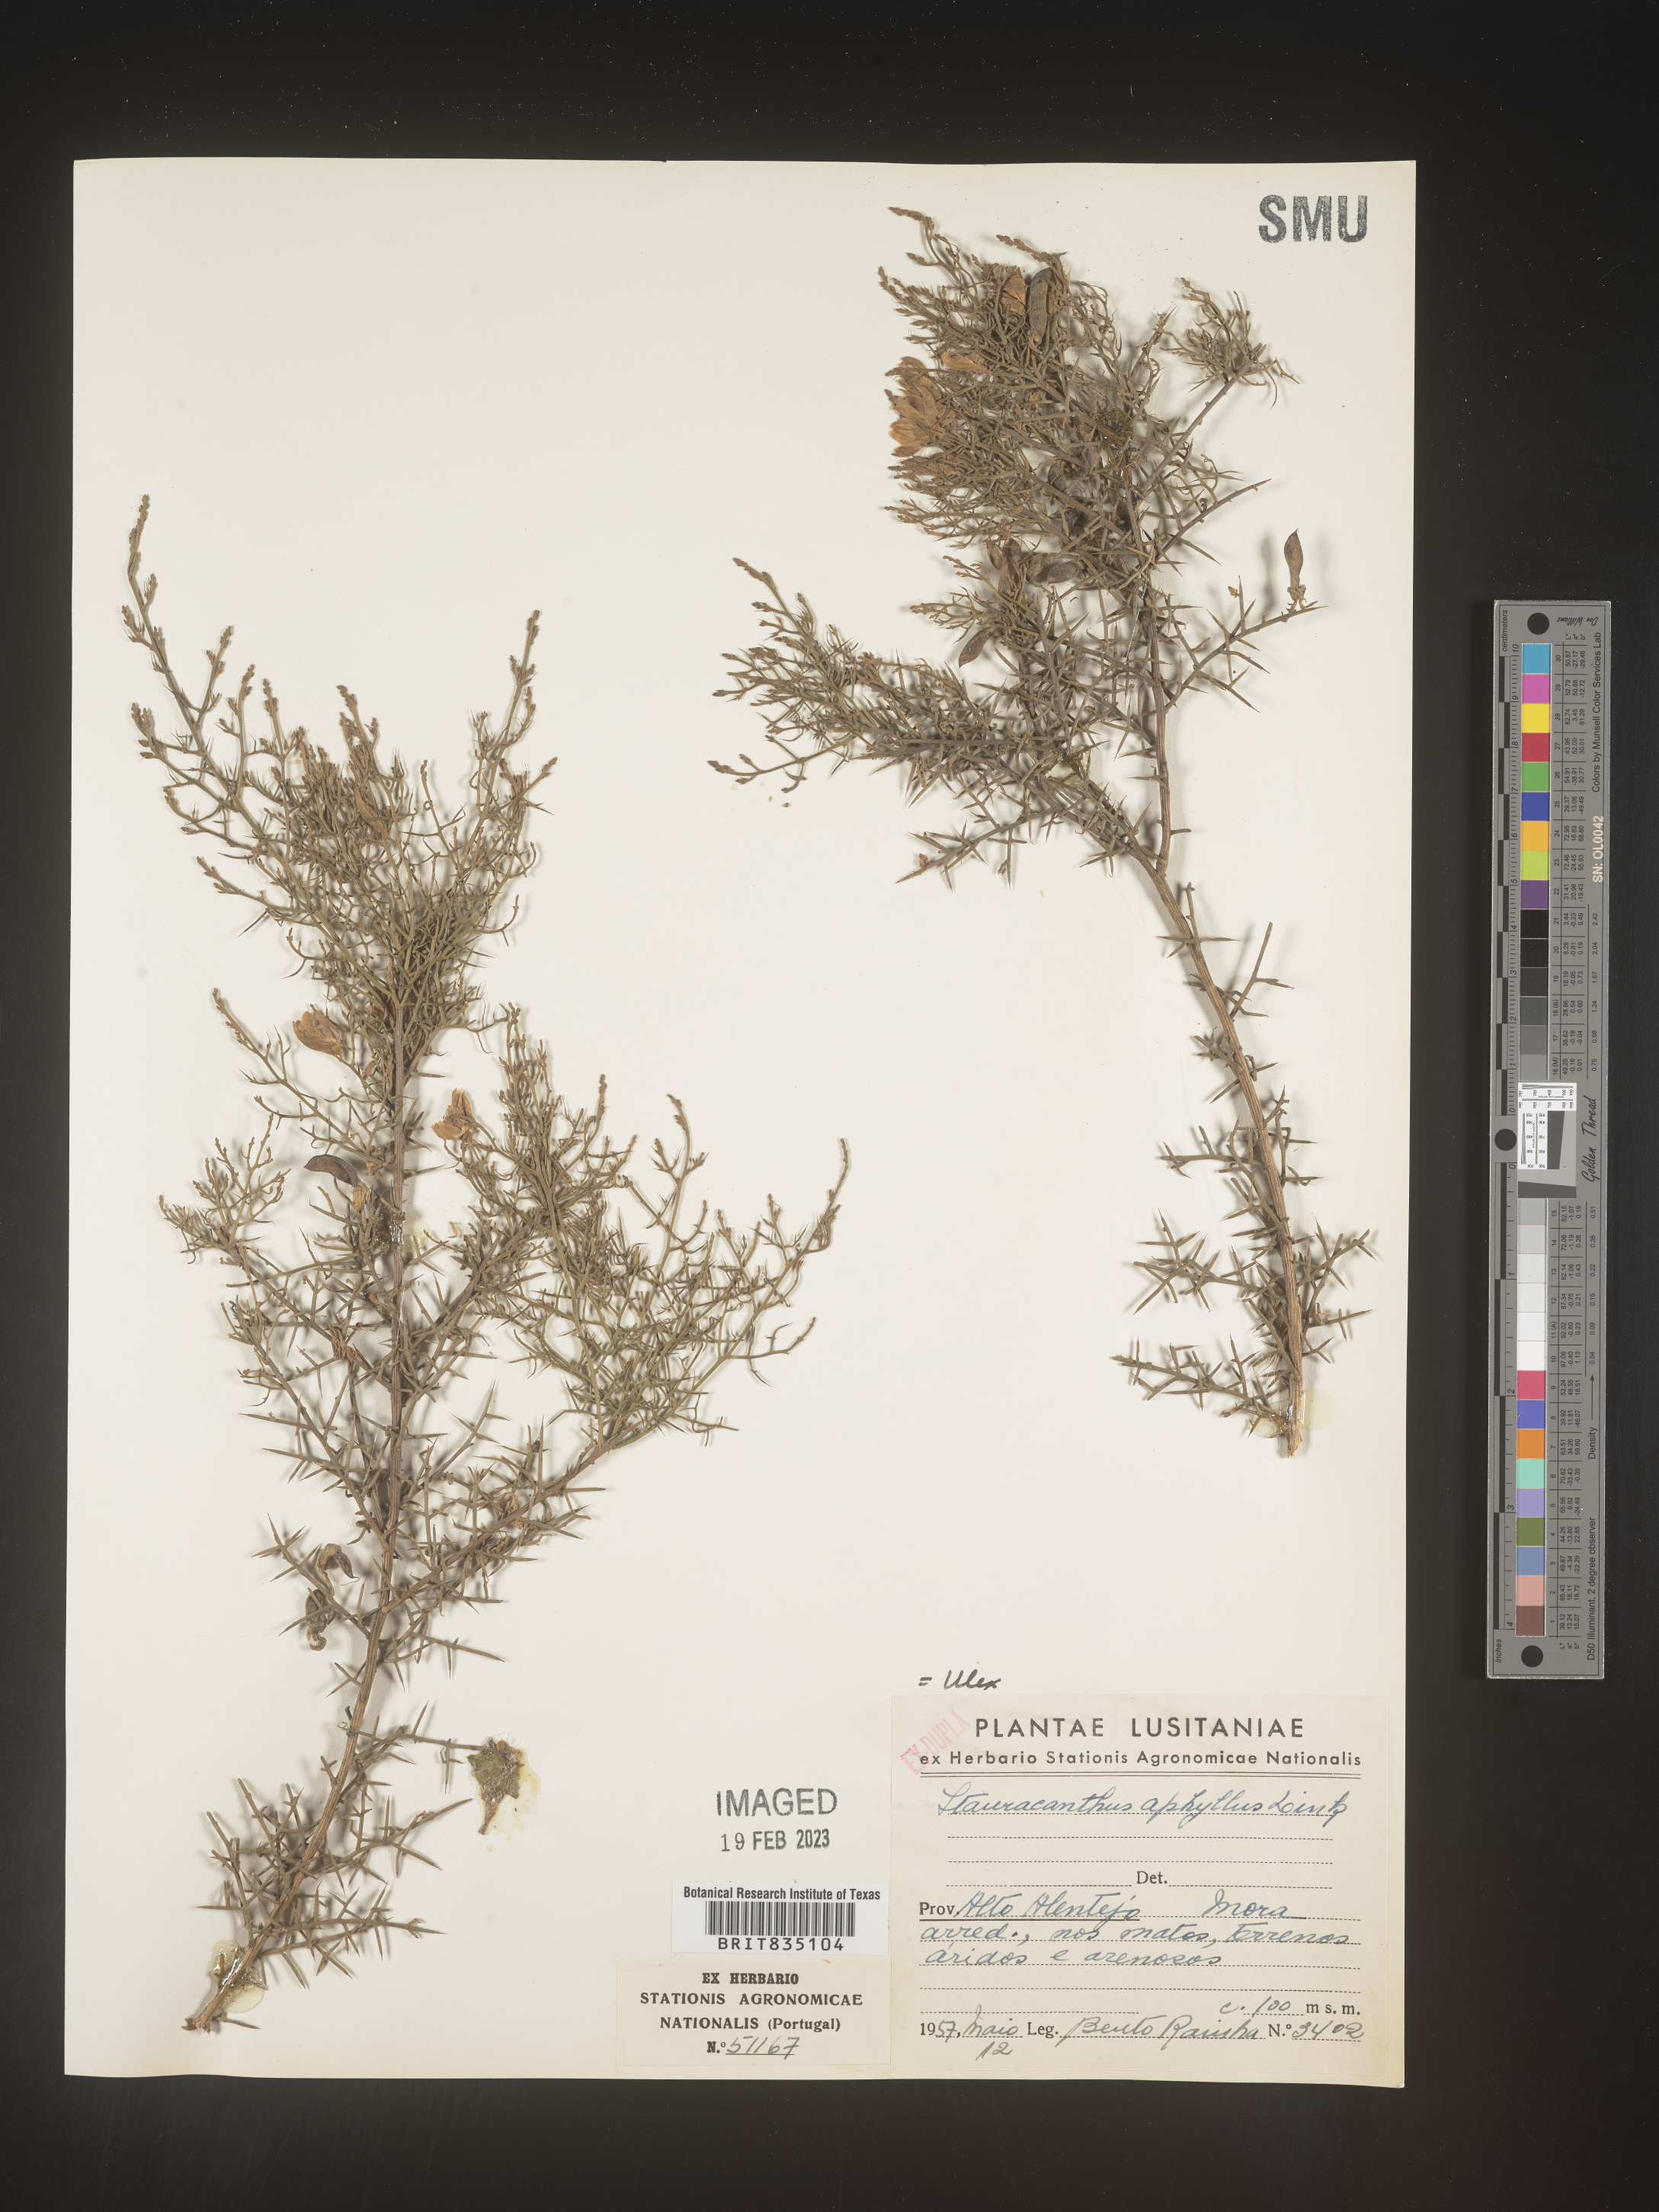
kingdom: Plantae
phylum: Tracheophyta
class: Magnoliopsida
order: Fabales
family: Fabaceae
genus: Ulex
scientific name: Ulex
